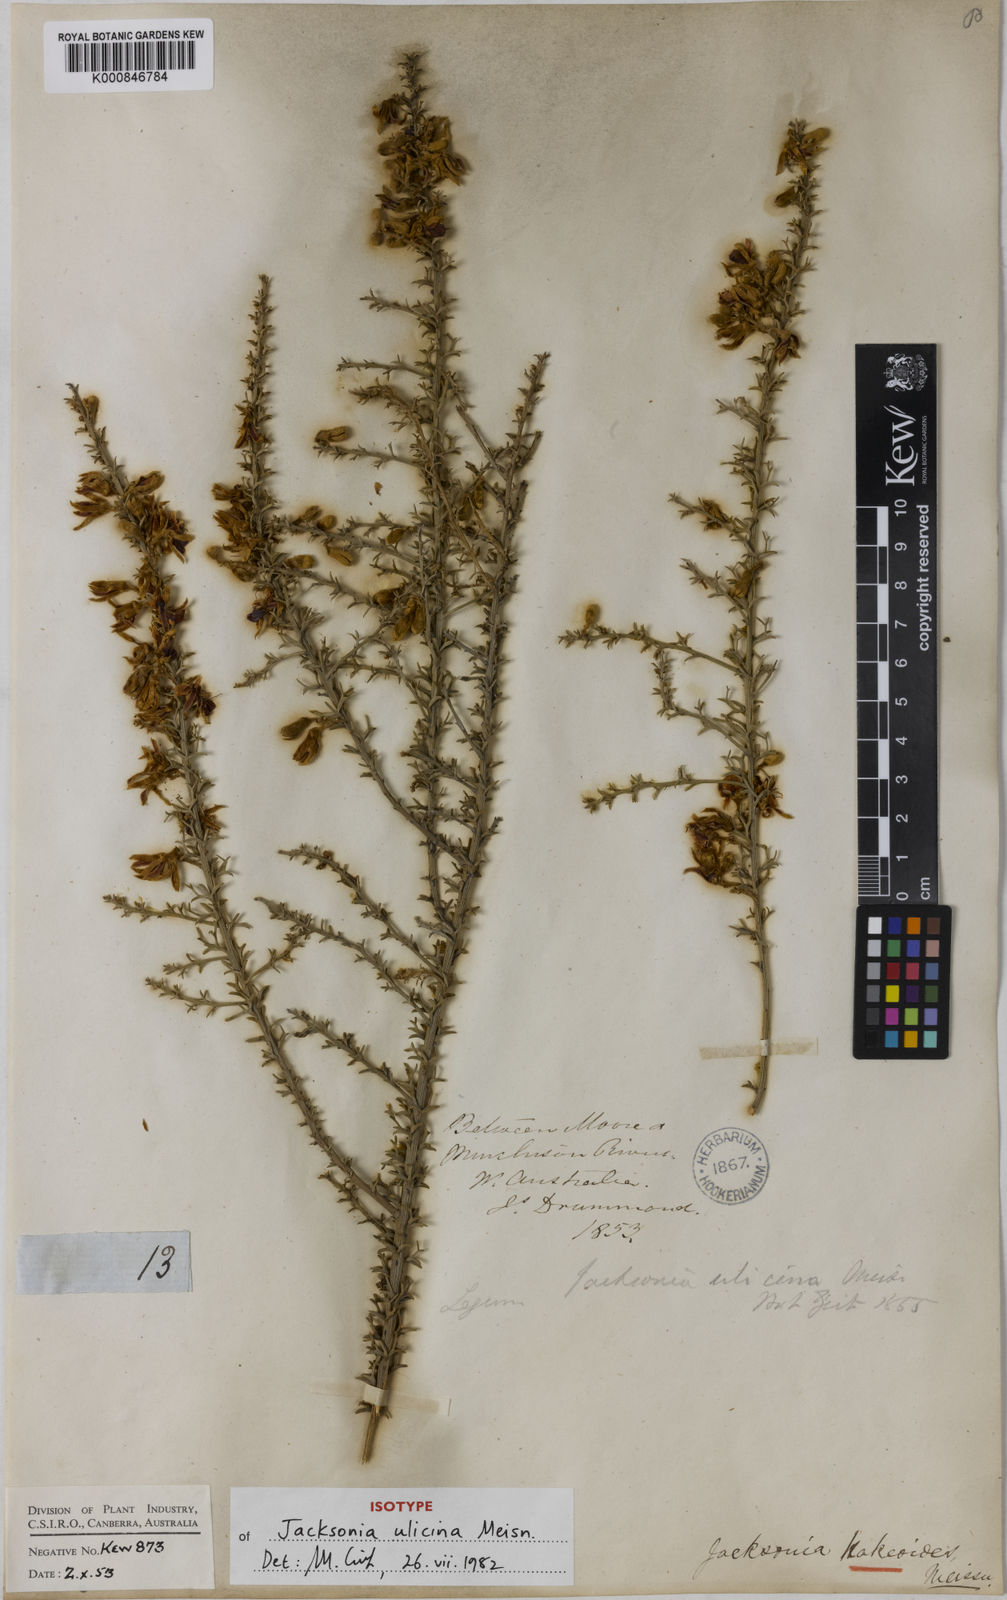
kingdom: Plantae
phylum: Tracheophyta
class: Magnoliopsida
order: Fabales
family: Fabaceae
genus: Jacksonia
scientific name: Jacksonia hakeoides
